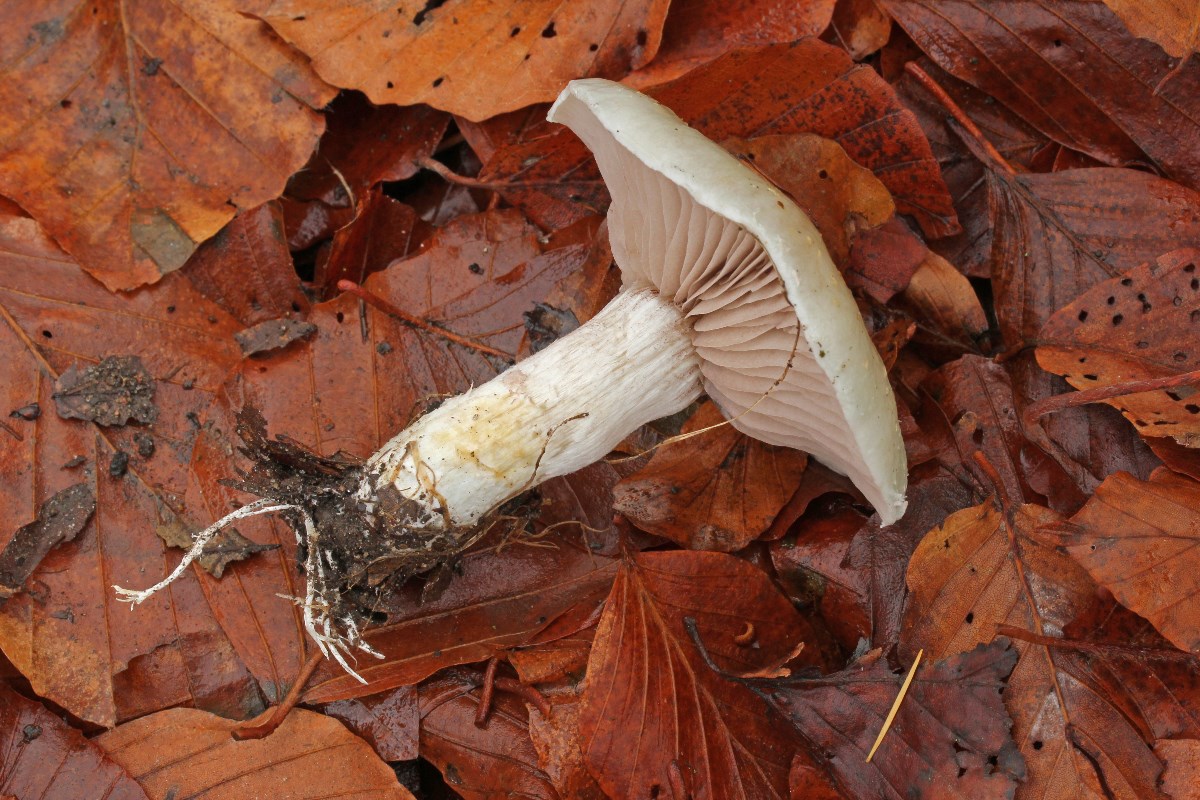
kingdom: Fungi
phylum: Basidiomycota
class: Agaricomycetes
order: Agaricales
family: Strophariaceae
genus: Stropharia
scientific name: Stropharia cyanea
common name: blågrøn bredblad
